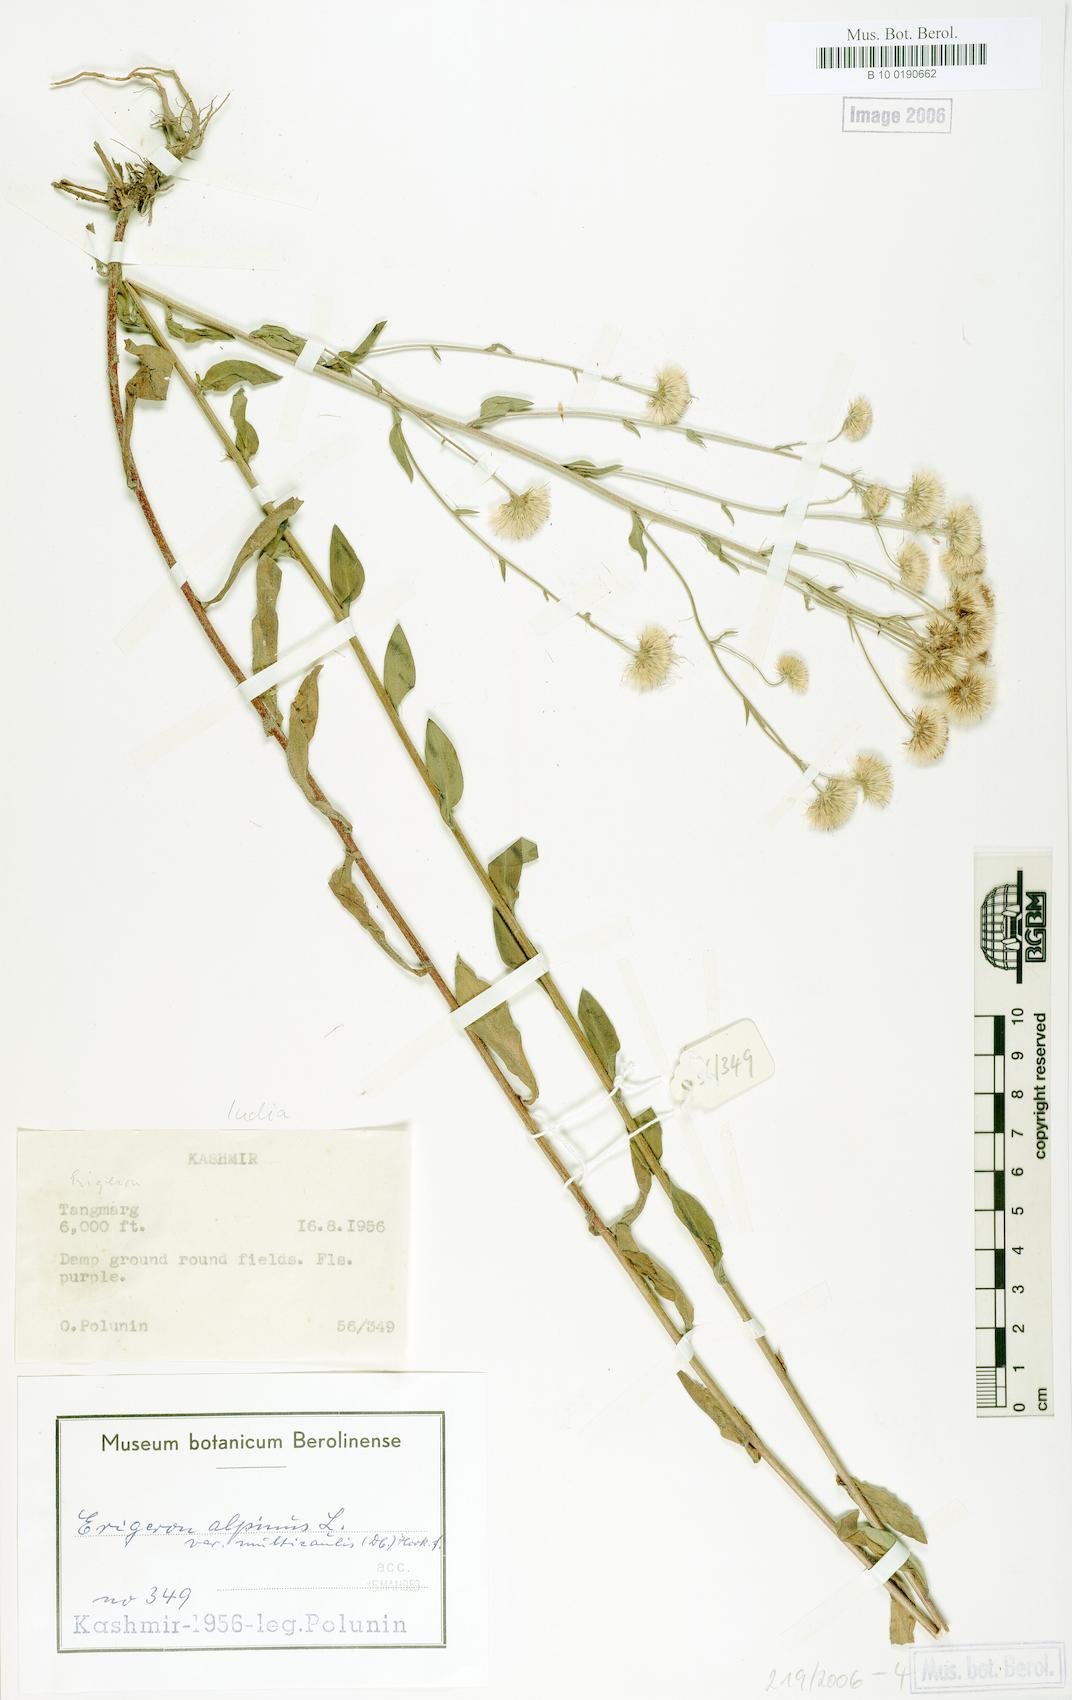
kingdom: Plantae
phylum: Tracheophyta
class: Magnoliopsida
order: Asterales
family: Asteraceae
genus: Erigeron
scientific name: Erigeron acris
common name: Blue fleabane
